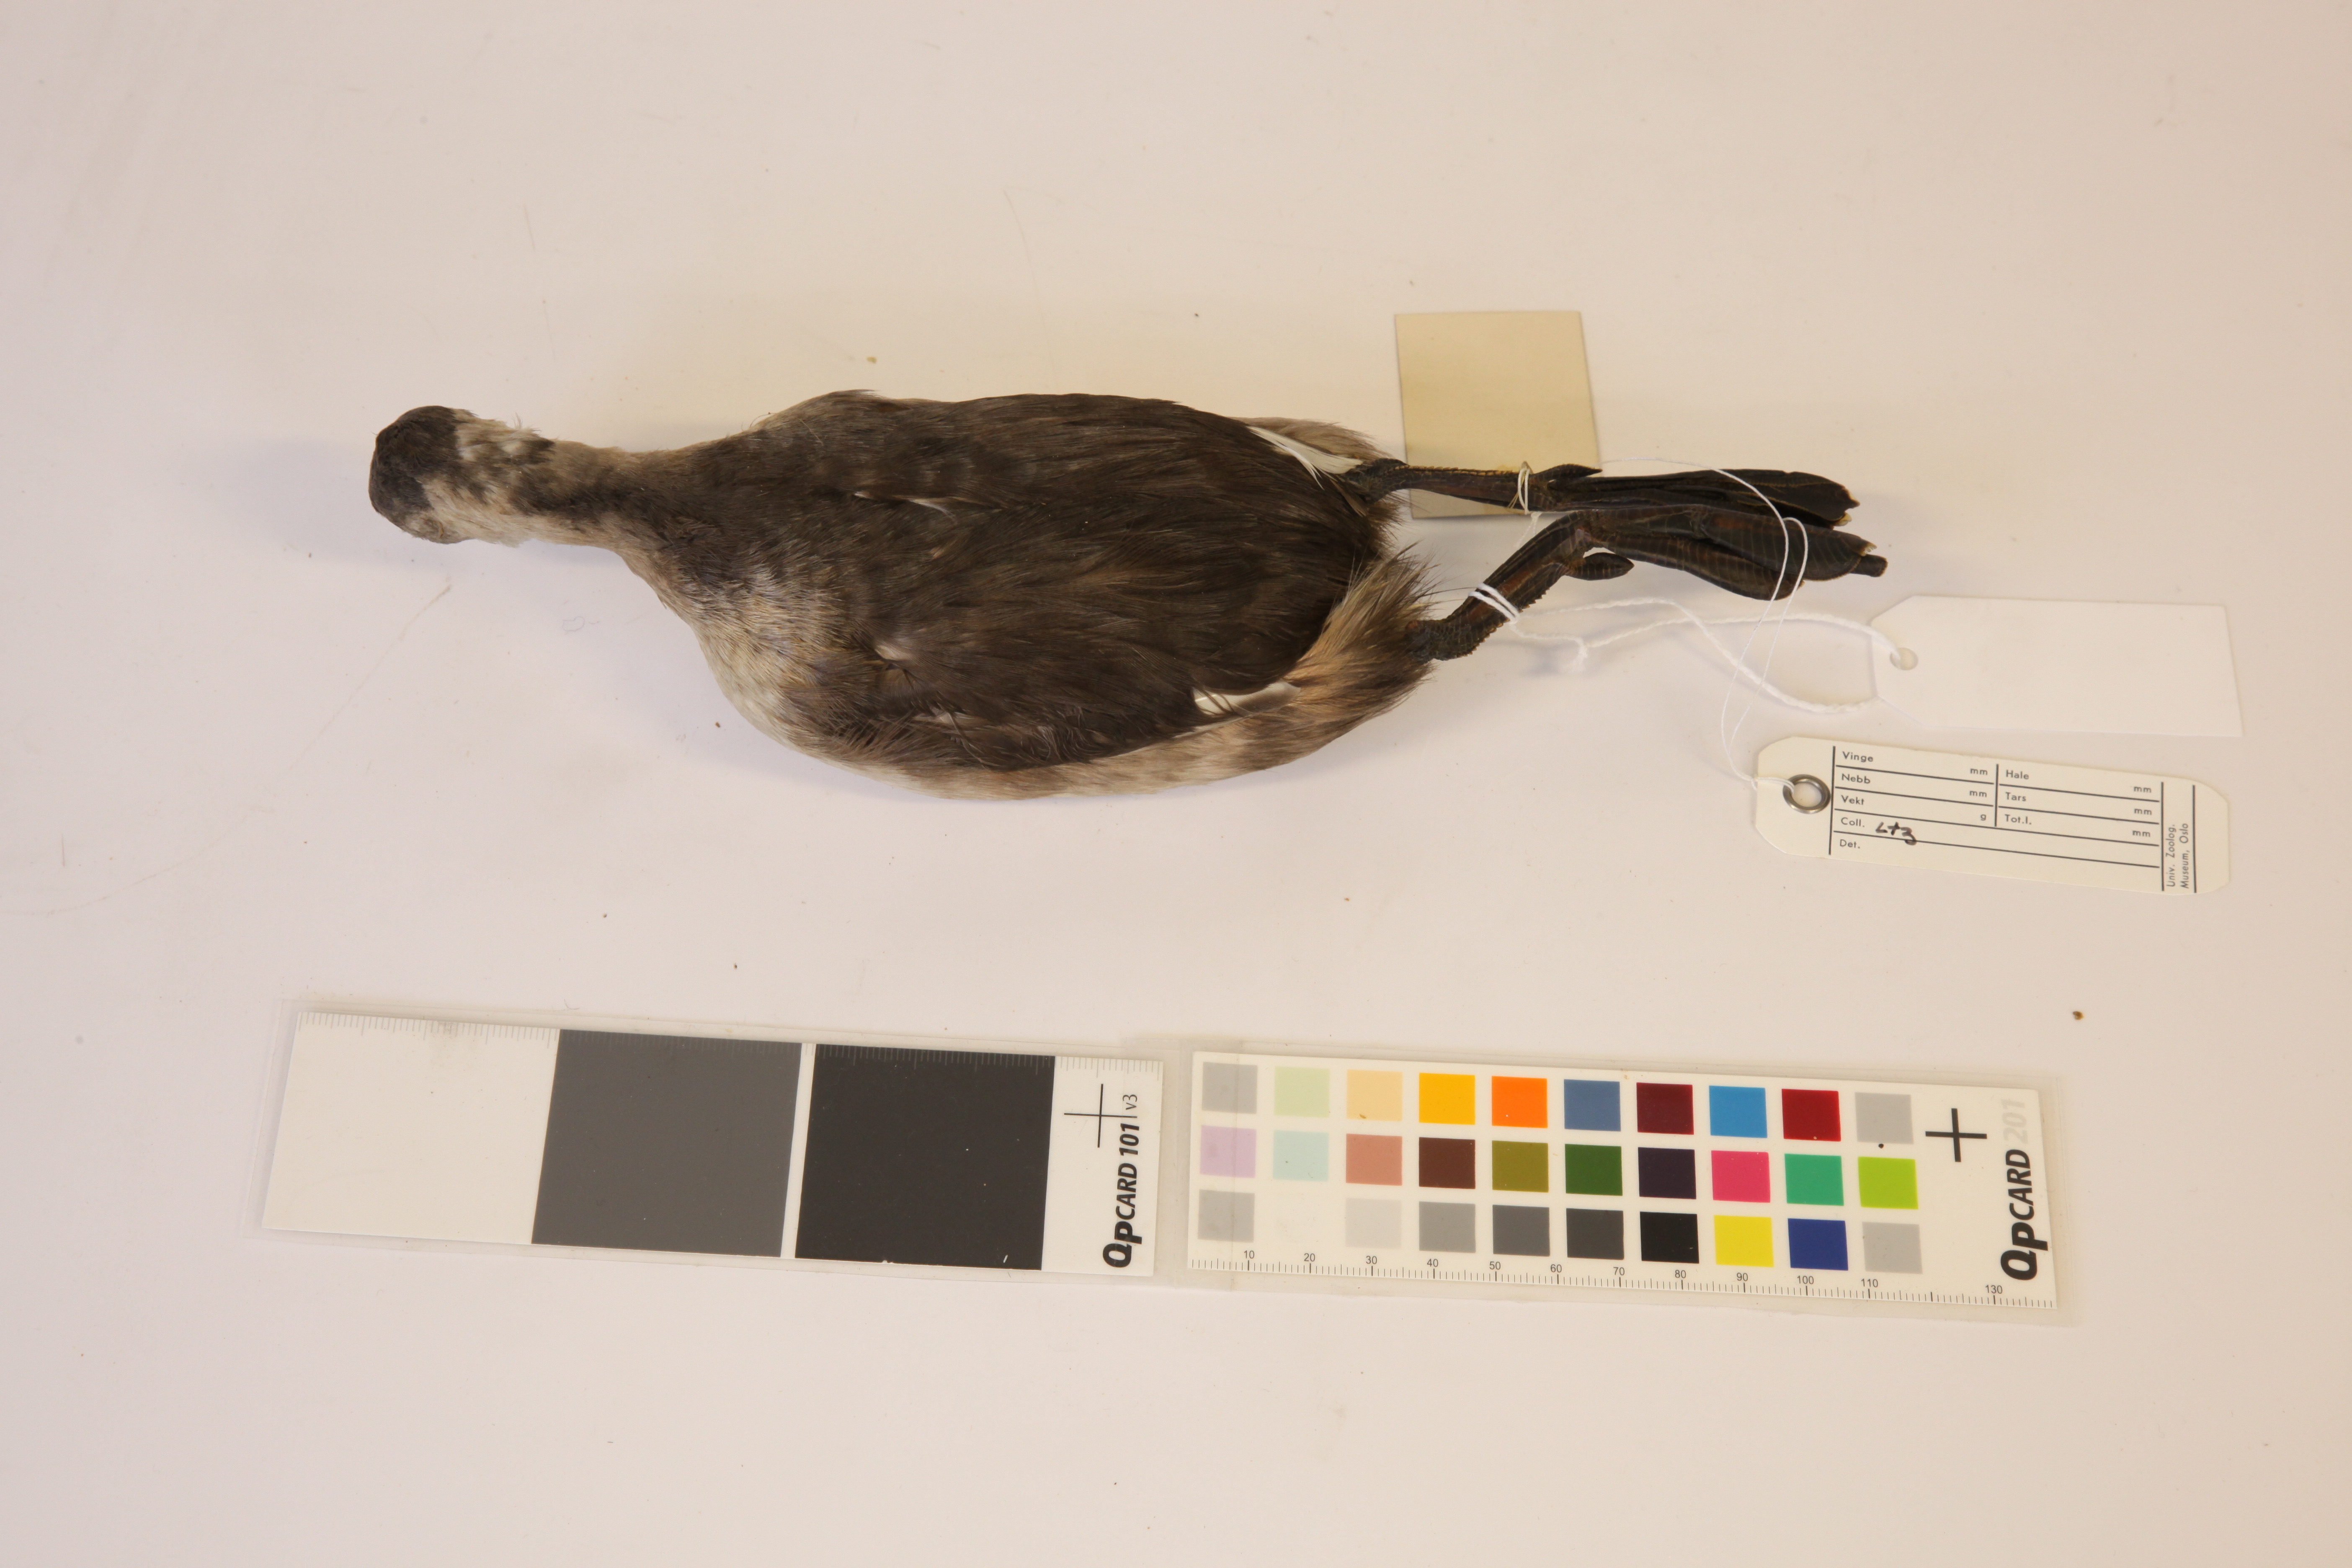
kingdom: Animalia
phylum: Chordata
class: Aves
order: Podicipediformes
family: Podicipedidae
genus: Tachybaptus
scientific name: Tachybaptus novaehollandiae
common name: Australasian grebe
